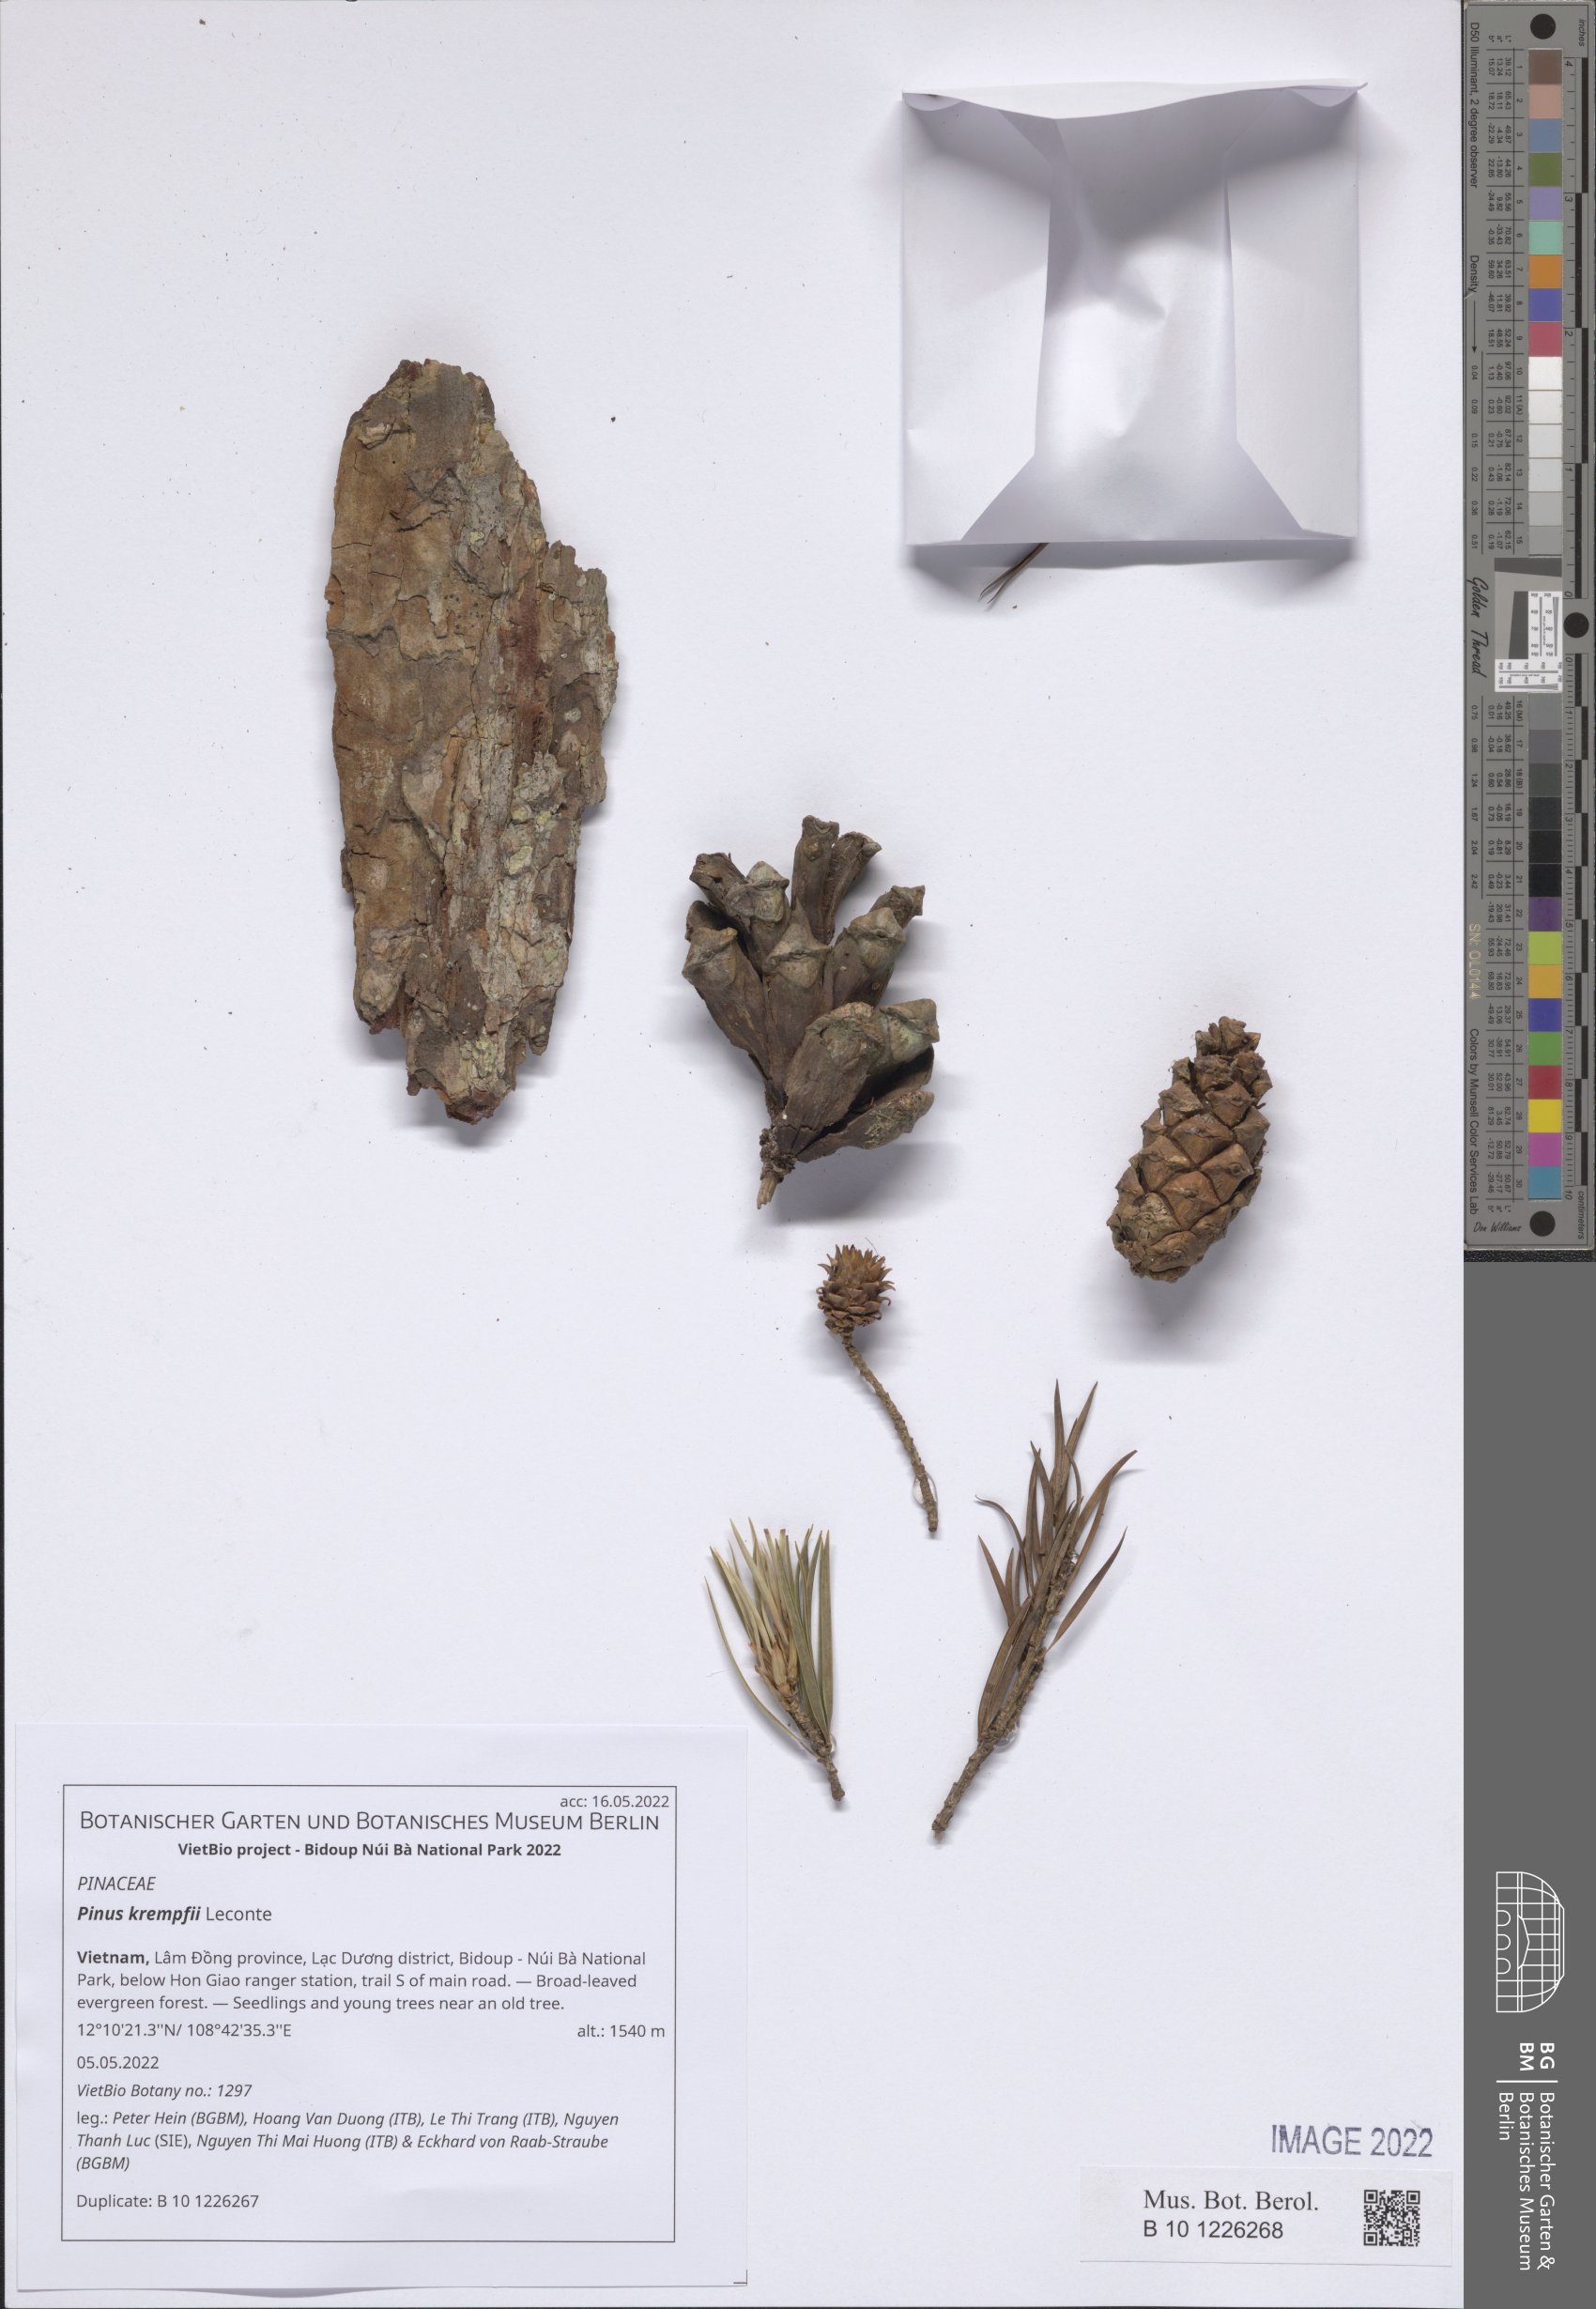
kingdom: Plantae
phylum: Tracheophyta
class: Pinopsida
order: Pinales
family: Pinaceae
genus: Pinus
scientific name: Pinus krempfii
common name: Krempf's pine
